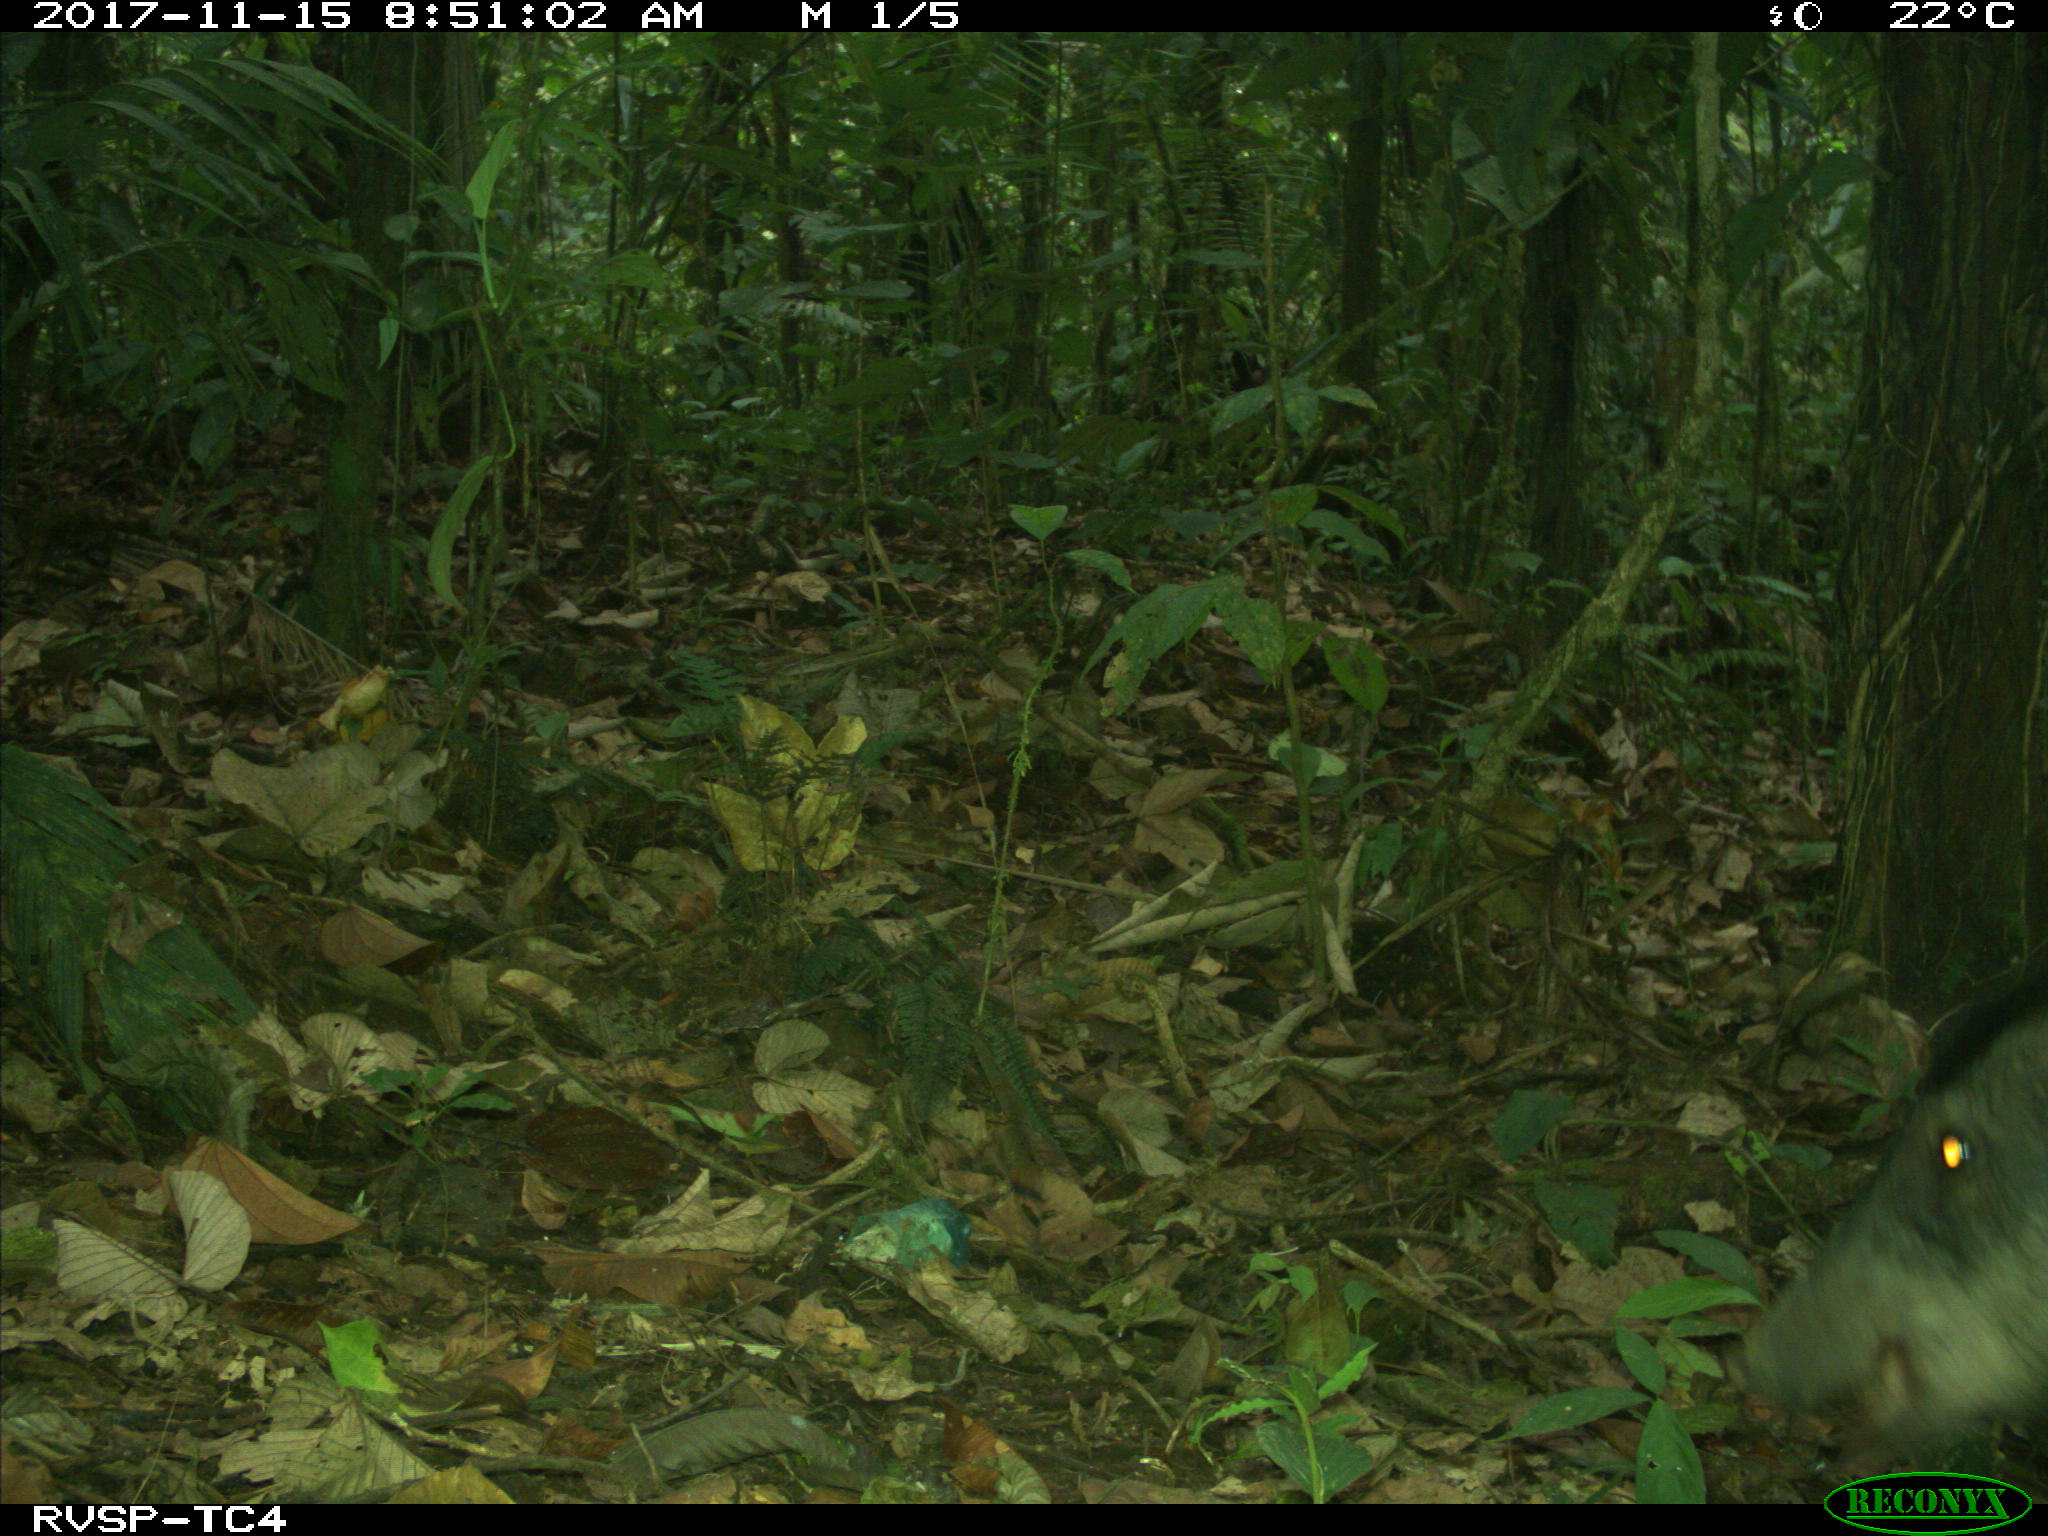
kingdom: Animalia
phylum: Chordata
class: Mammalia
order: Artiodactyla
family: Tayassuidae
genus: Tayassu
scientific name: Tayassu pecari
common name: White-lipped peccary
